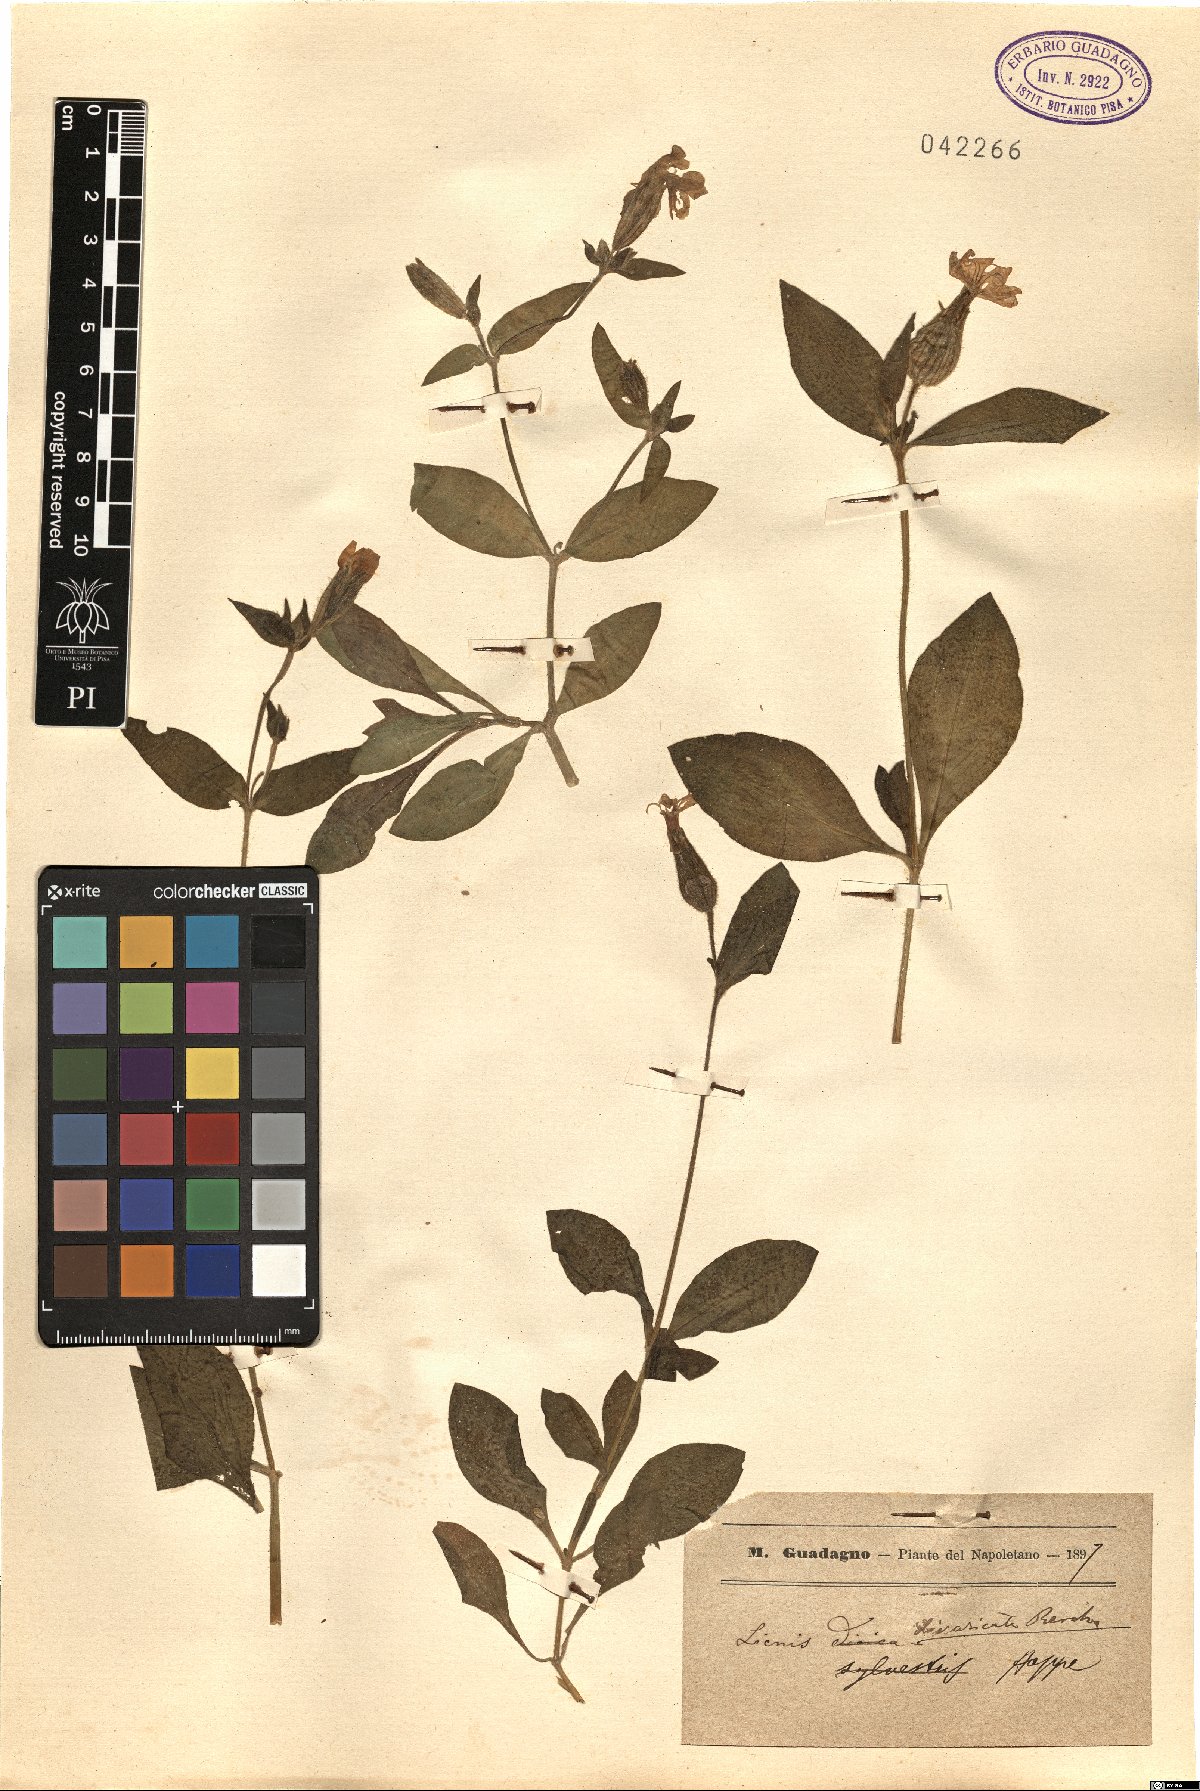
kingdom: Plantae
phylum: Tracheophyta
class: Magnoliopsida
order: Caryophyllales
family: Caryophyllaceae
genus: Silene
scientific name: Silene latifolia
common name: White campion
